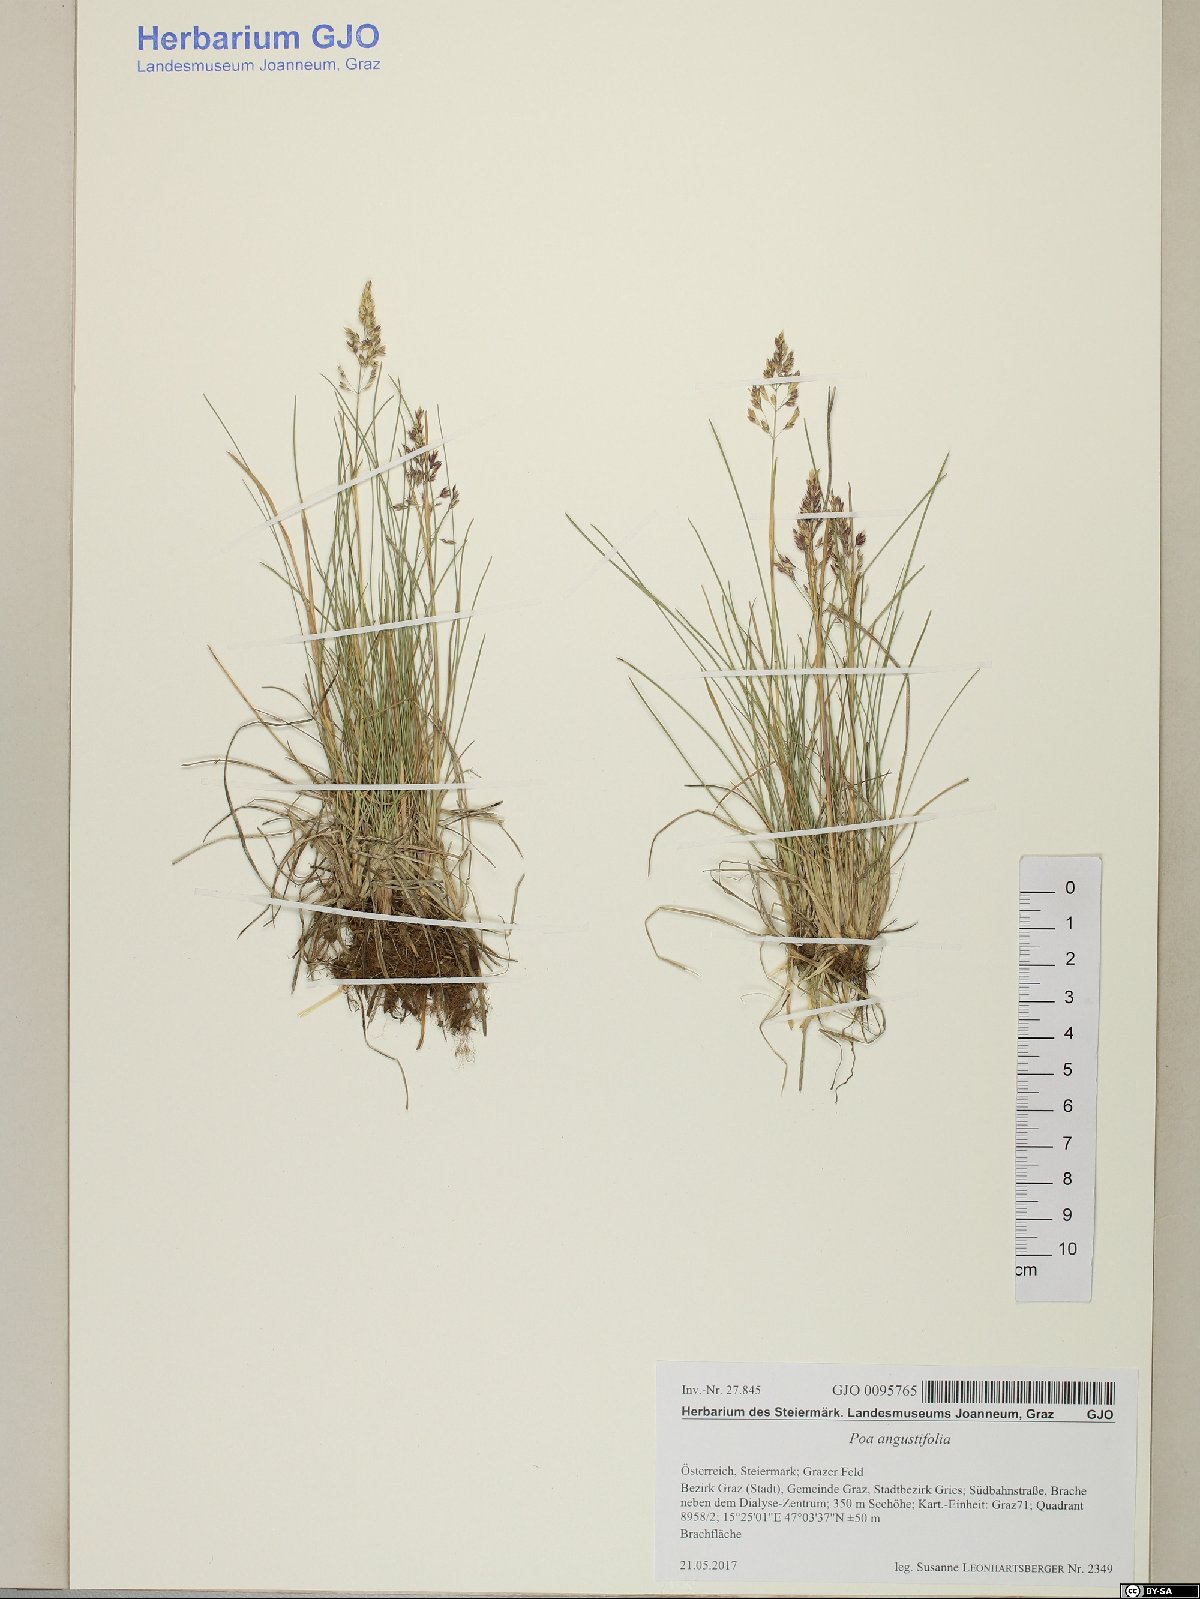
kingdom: Plantae
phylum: Tracheophyta
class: Liliopsida
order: Poales
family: Poaceae
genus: Poa
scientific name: Poa angustifolia
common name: Narrow-leaved meadow-grass
